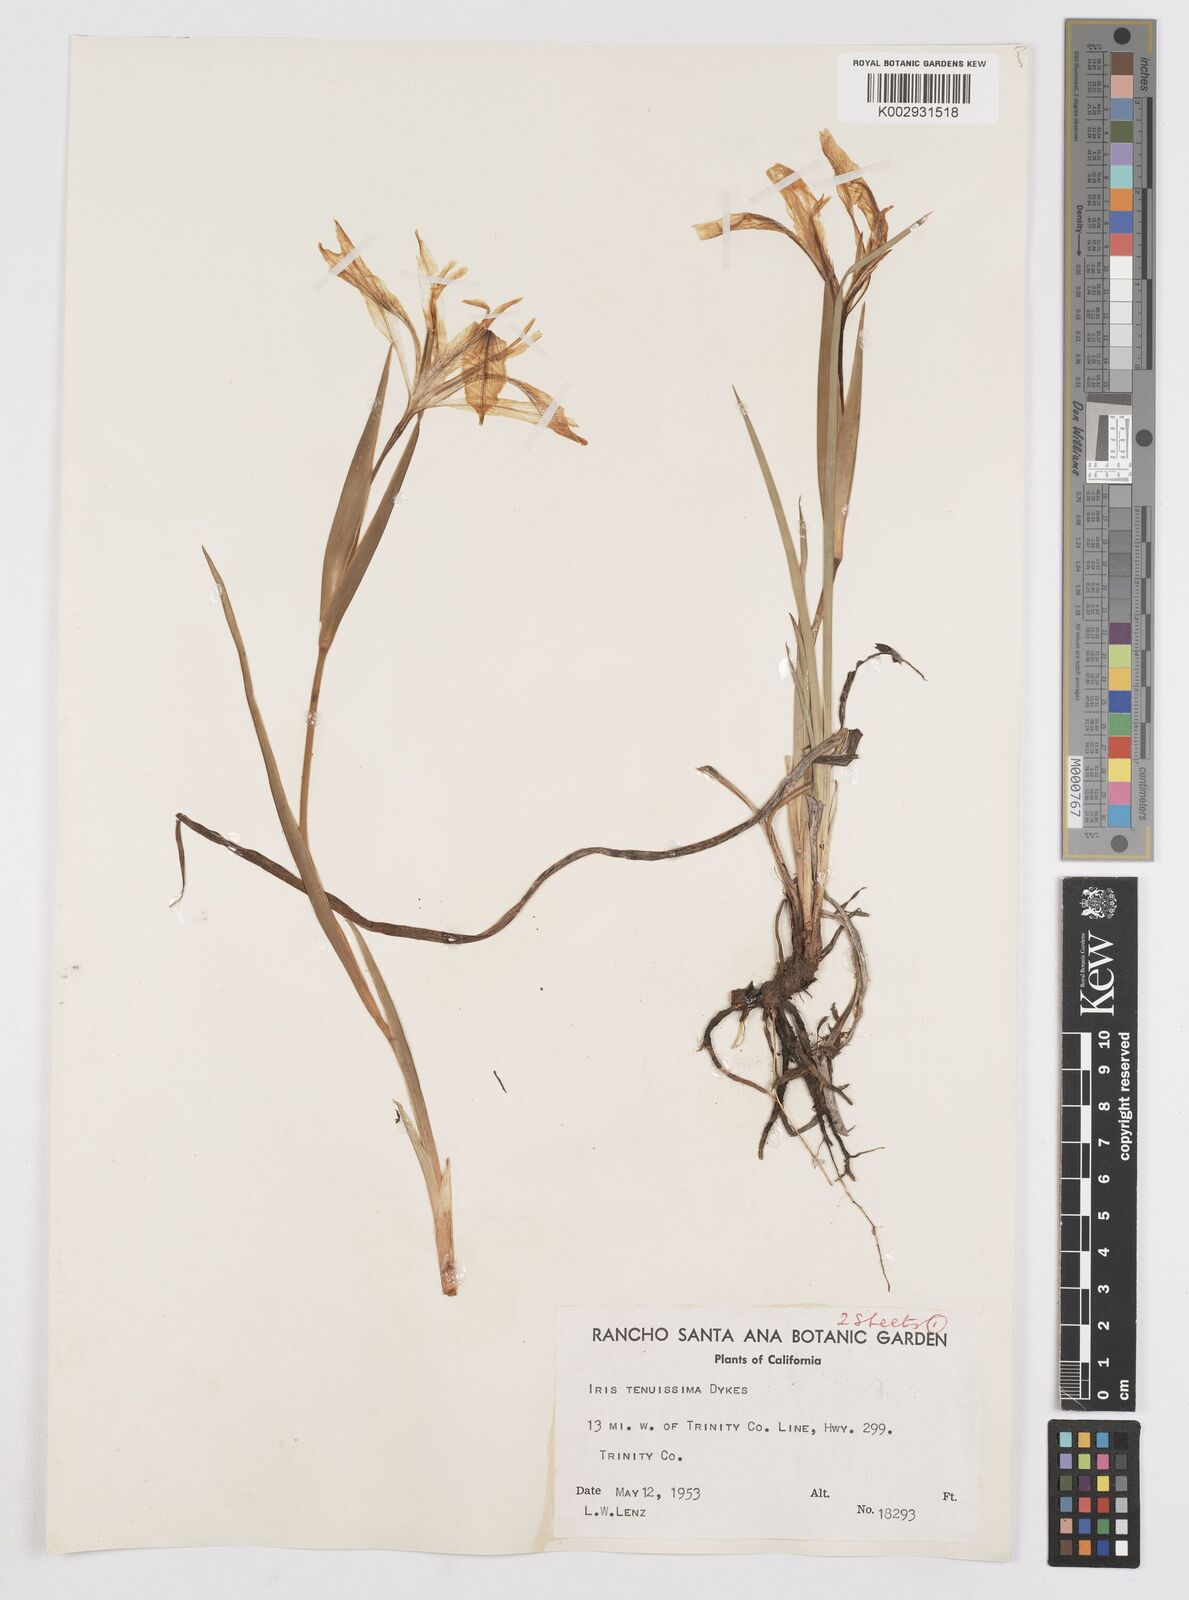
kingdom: Plantae
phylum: Tracheophyta
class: Liliopsida
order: Asparagales
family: Iridaceae
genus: Iris
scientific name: Iris tenuissima
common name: Long-tube iris
